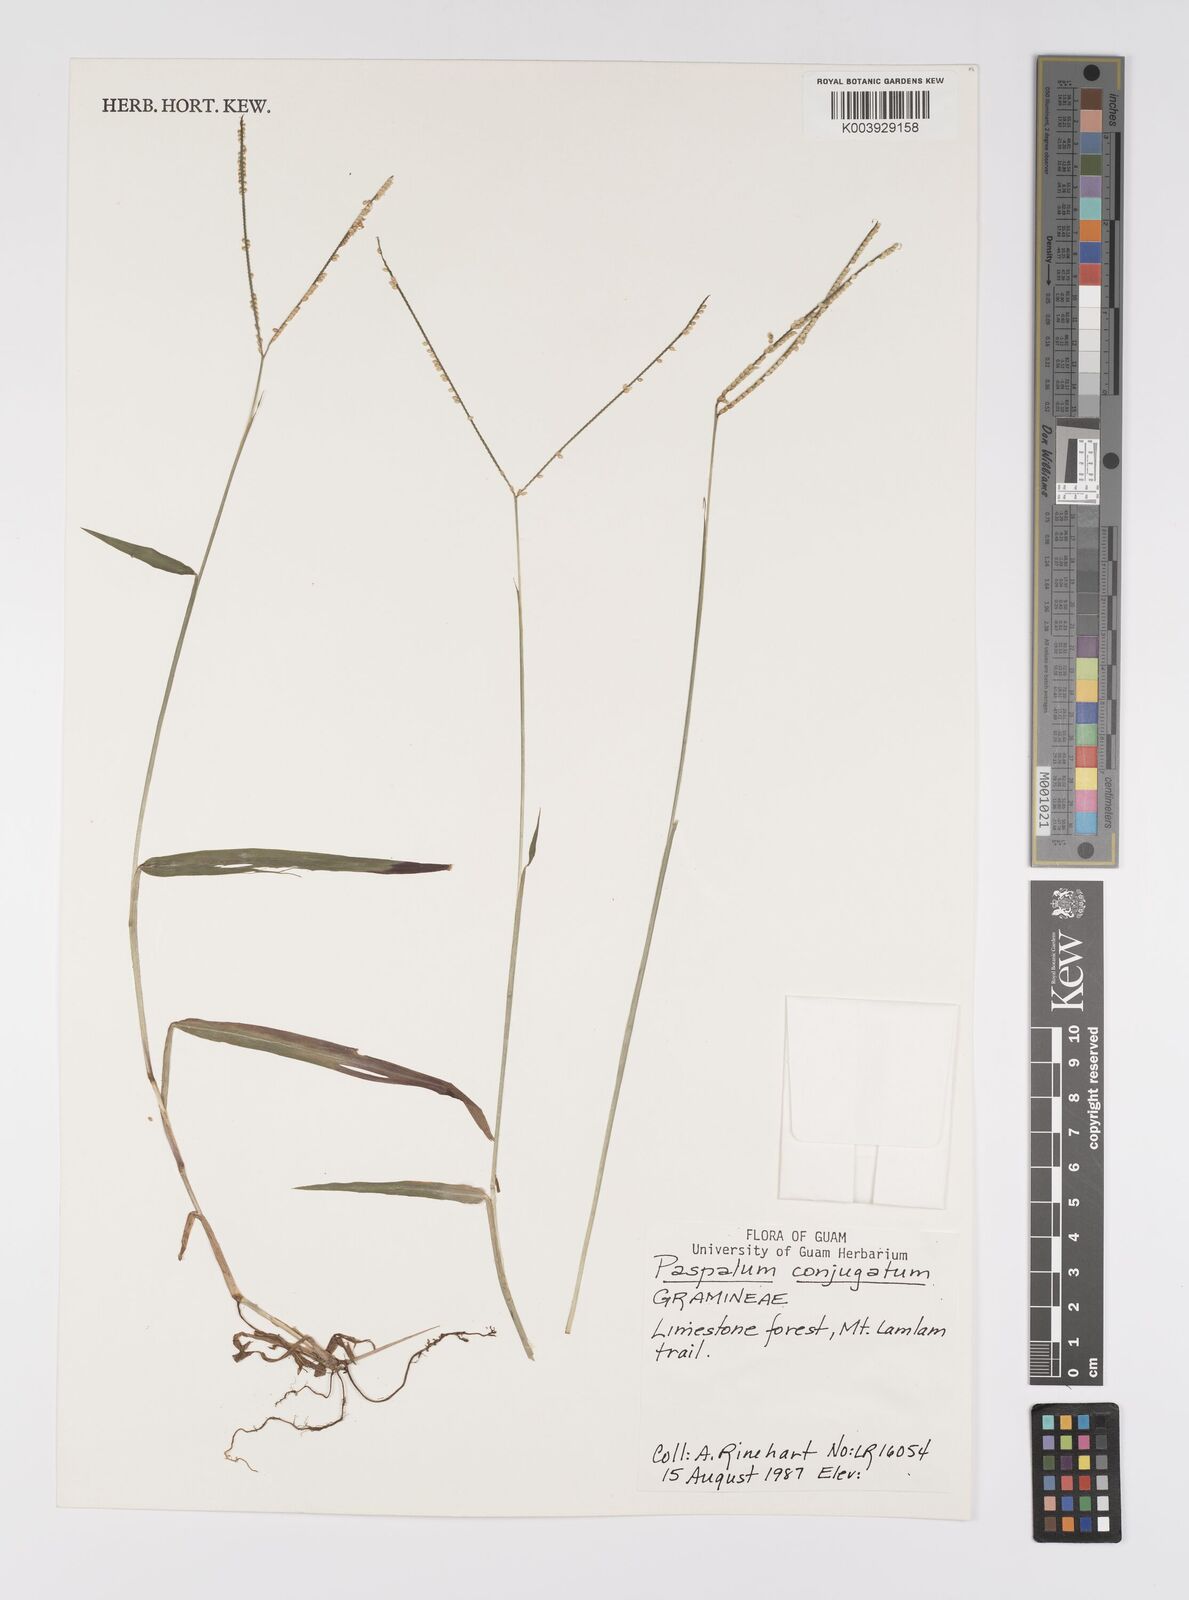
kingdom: Plantae
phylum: Tracheophyta
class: Liliopsida
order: Poales
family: Poaceae
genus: Paspalum
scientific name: Paspalum conjugatum
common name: Hilograss
